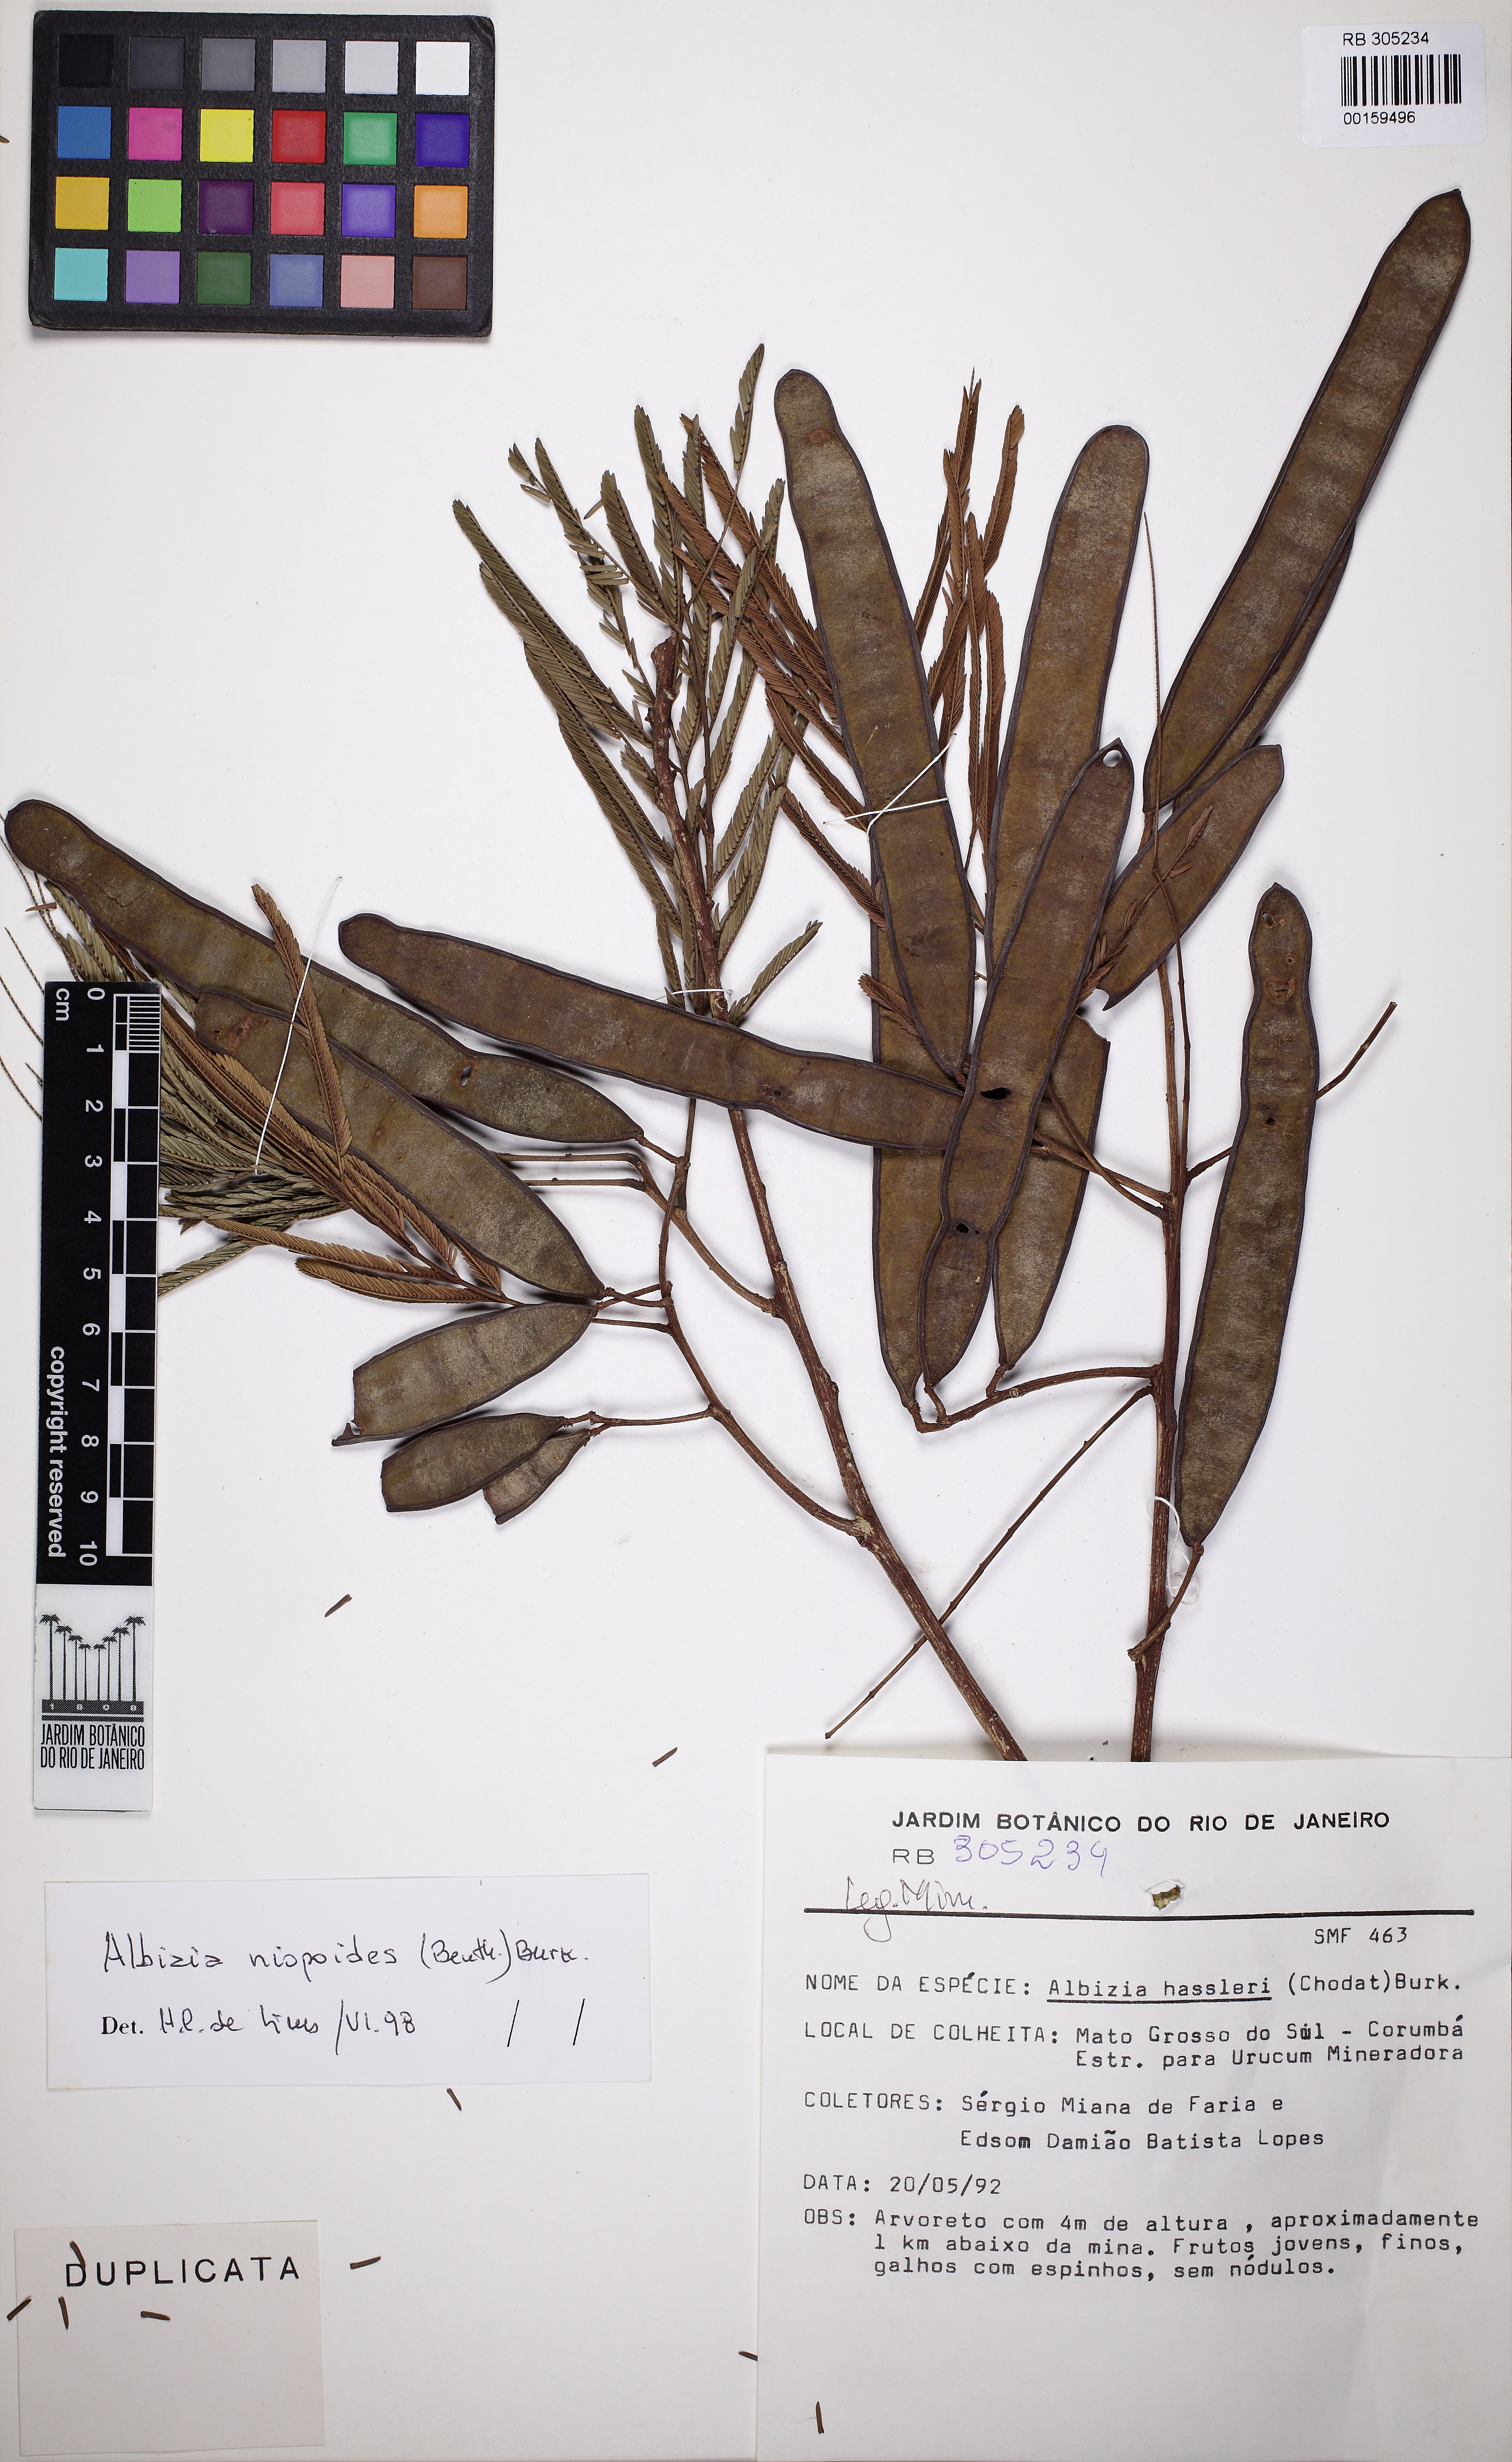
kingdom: Plantae
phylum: Tracheophyta
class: Magnoliopsida
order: Fabales
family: Fabaceae
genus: Albizia
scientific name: Albizia niopoides
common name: Silk tree
